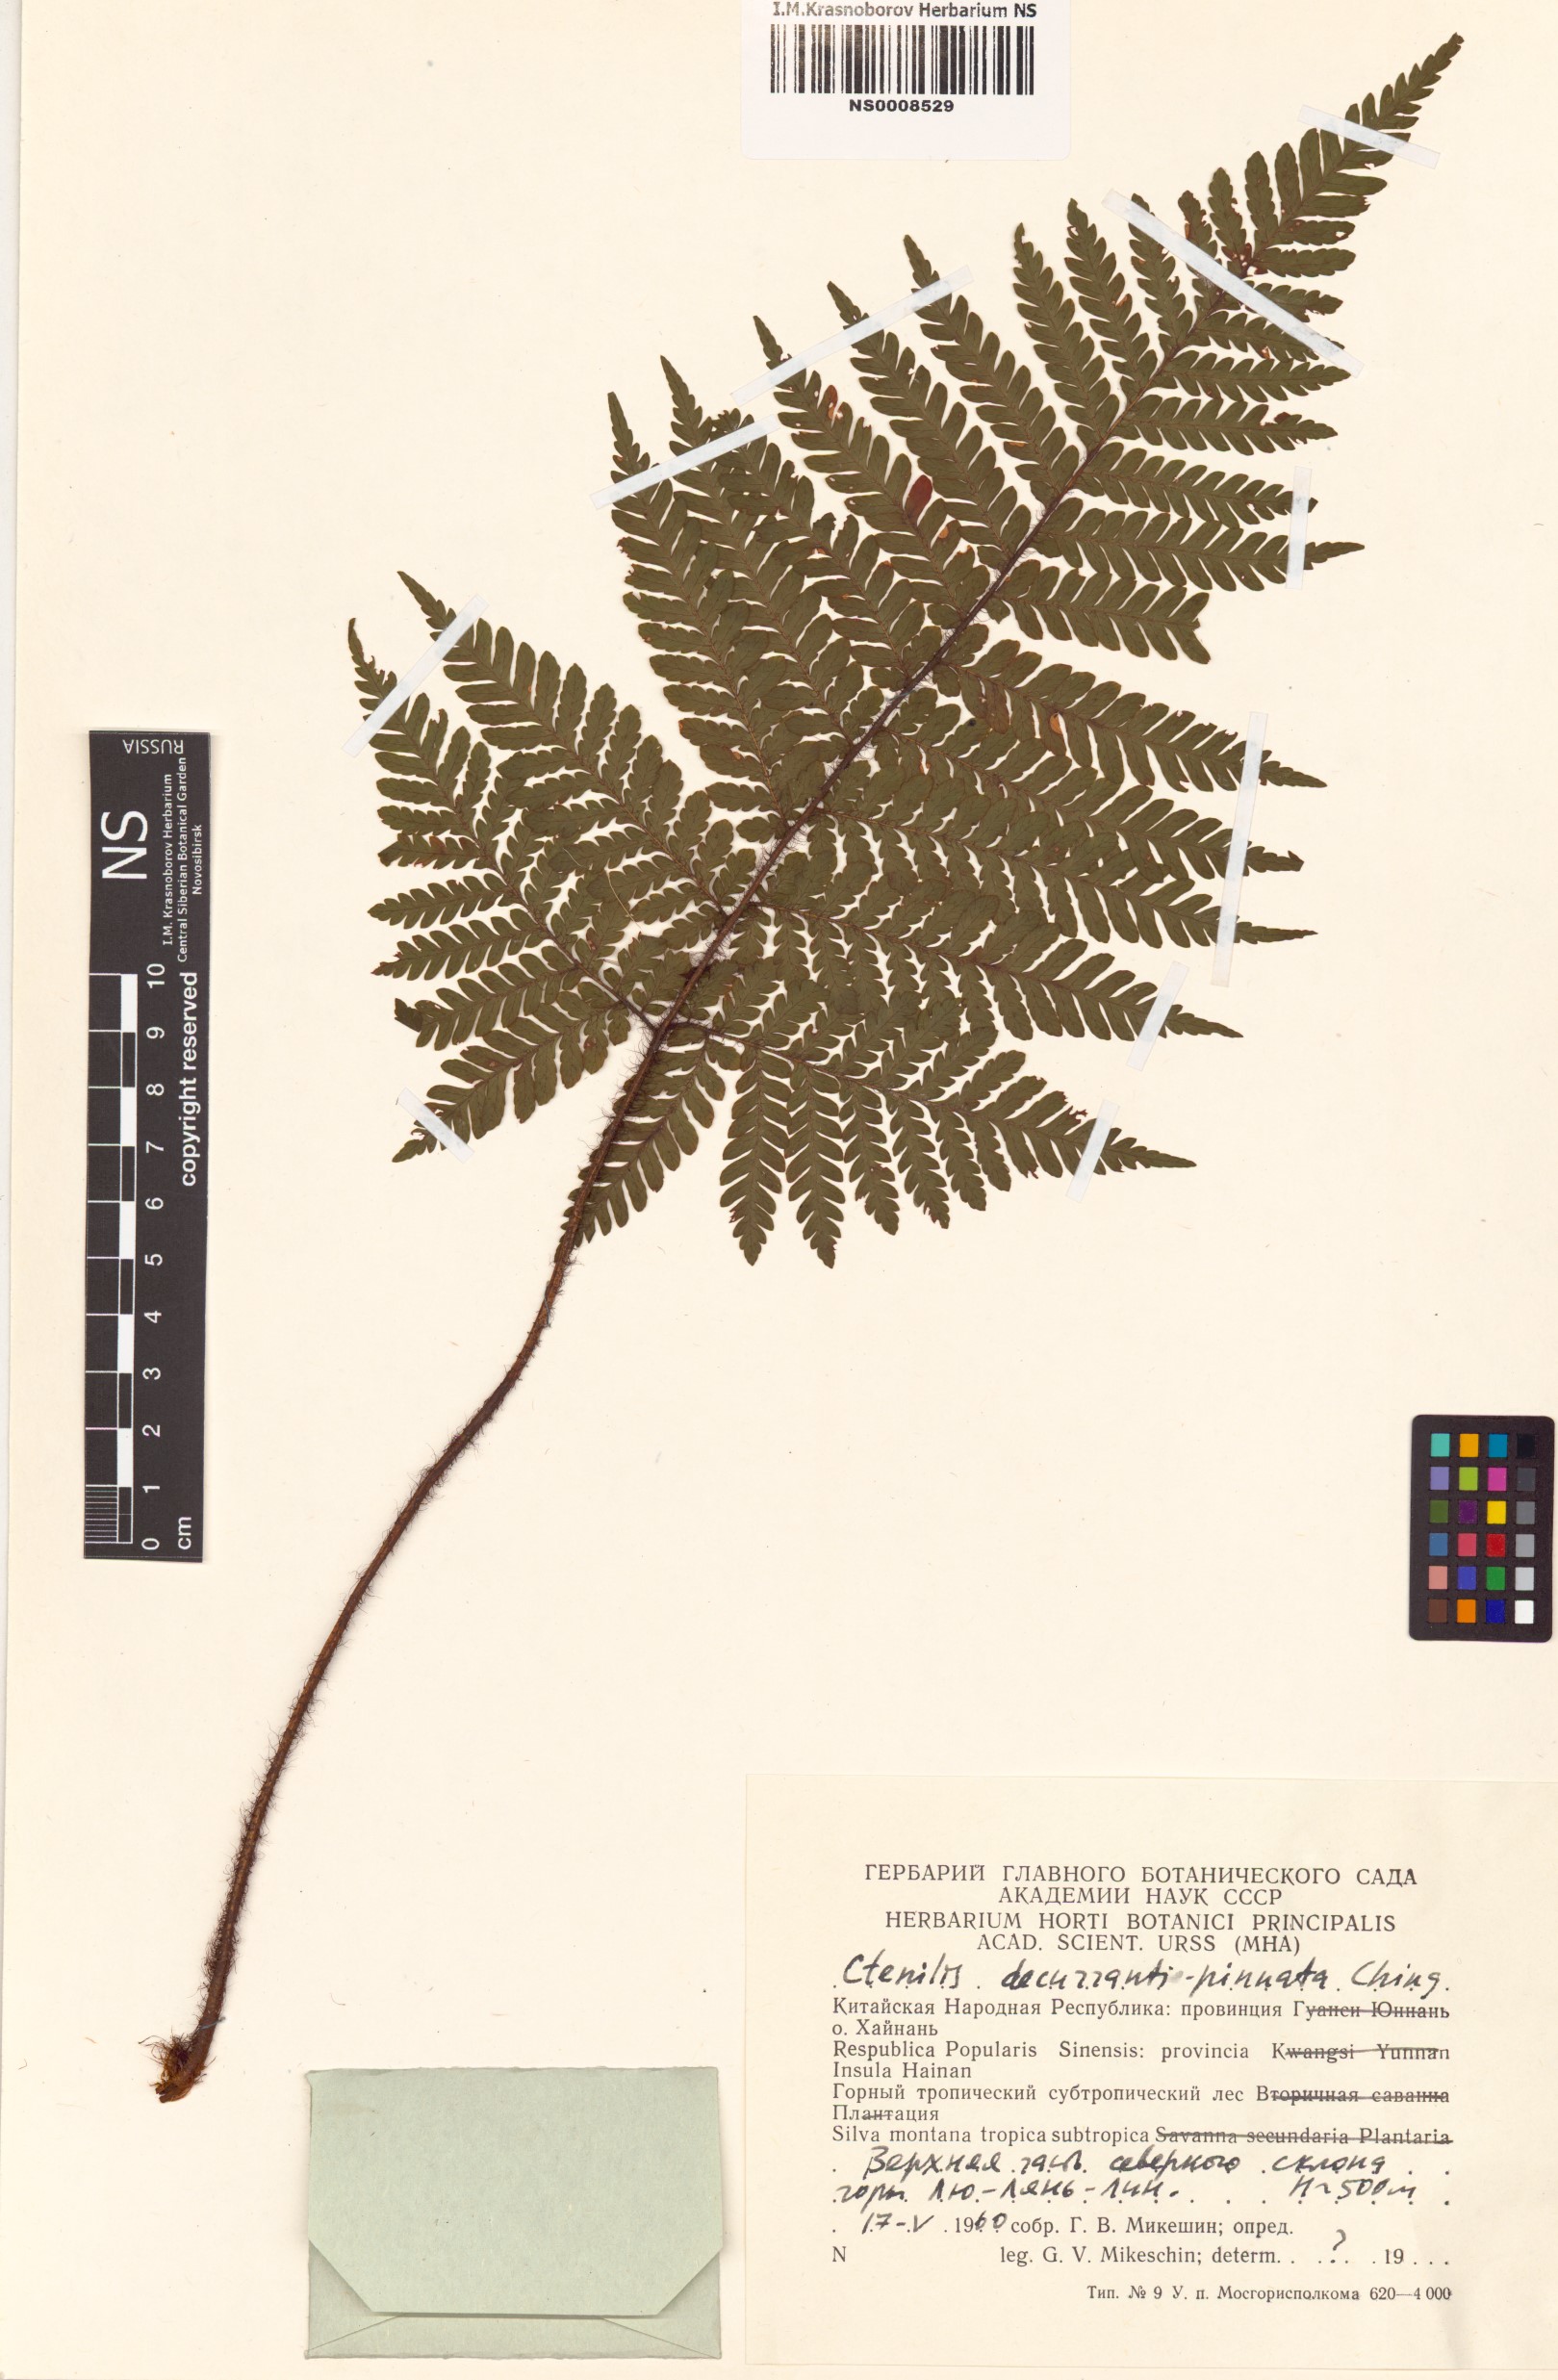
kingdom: Plantae
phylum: Tracheophyta
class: Polypodiopsida
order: Polypodiales
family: Dryopteridaceae
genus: Ctenitis
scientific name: Ctenitis decurrentipinnata
